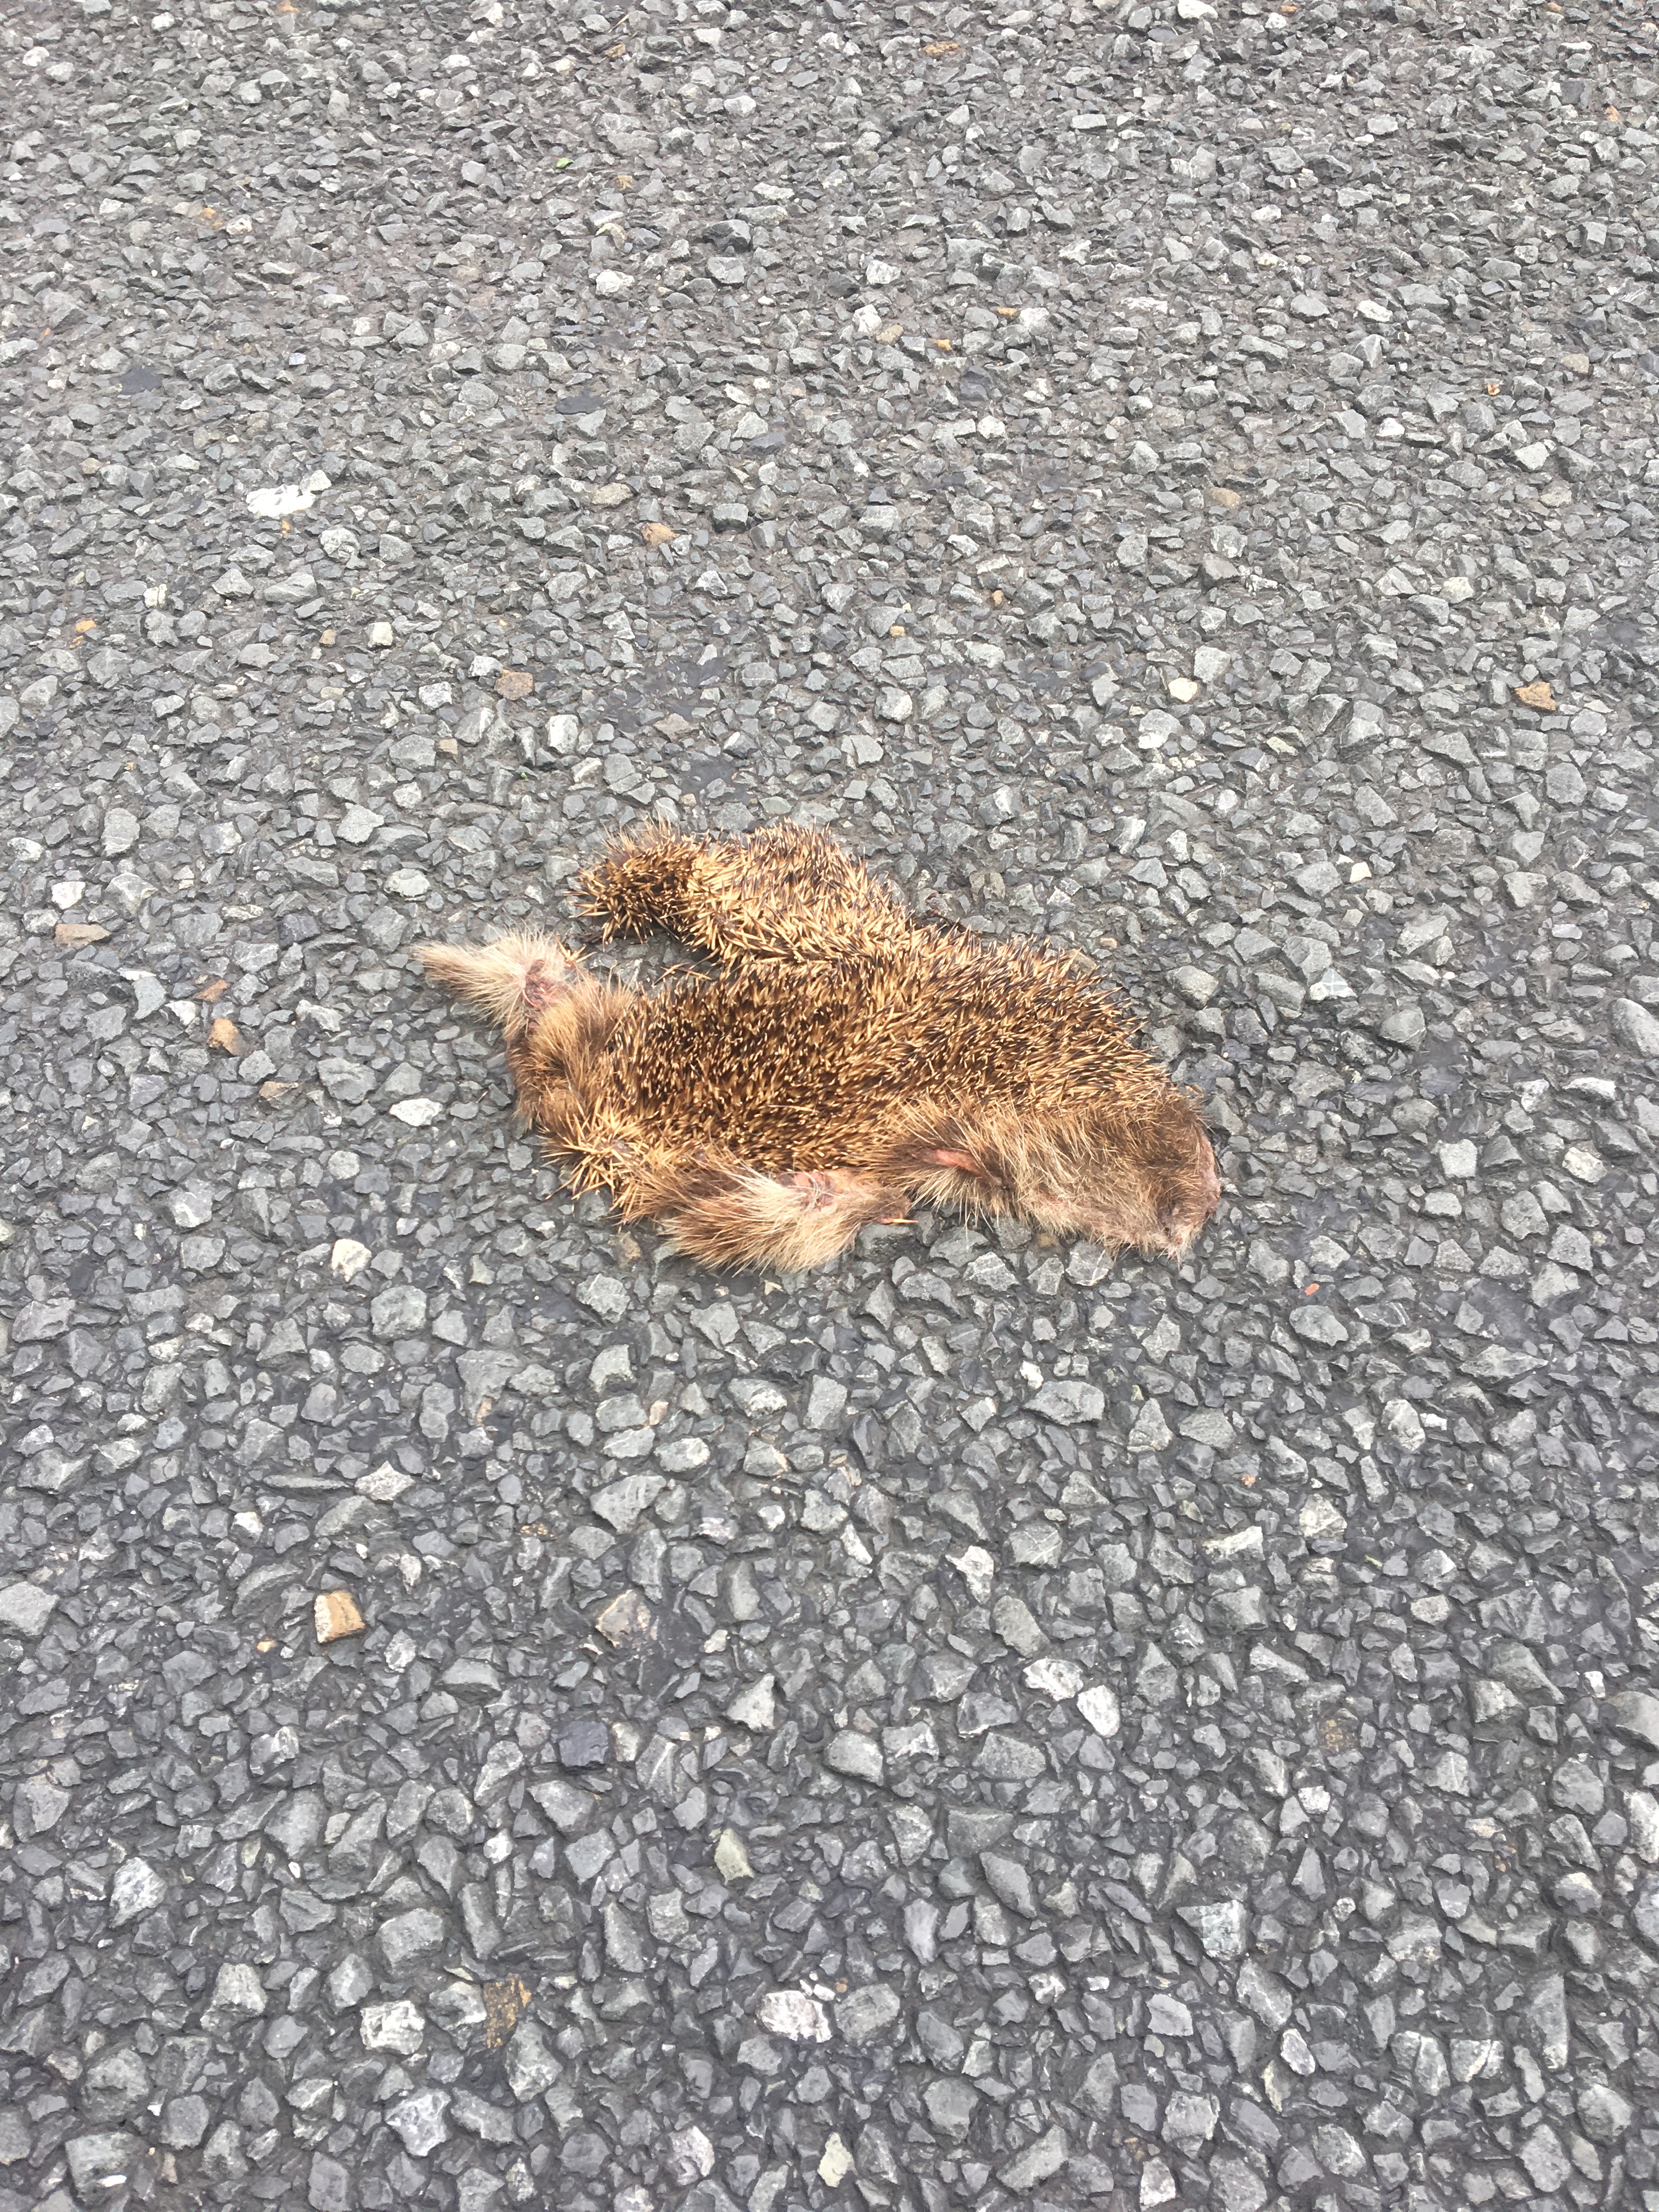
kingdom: Animalia
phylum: Chordata
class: Mammalia
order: Erinaceomorpha
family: Erinaceidae
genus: Erinaceus
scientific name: Erinaceus
